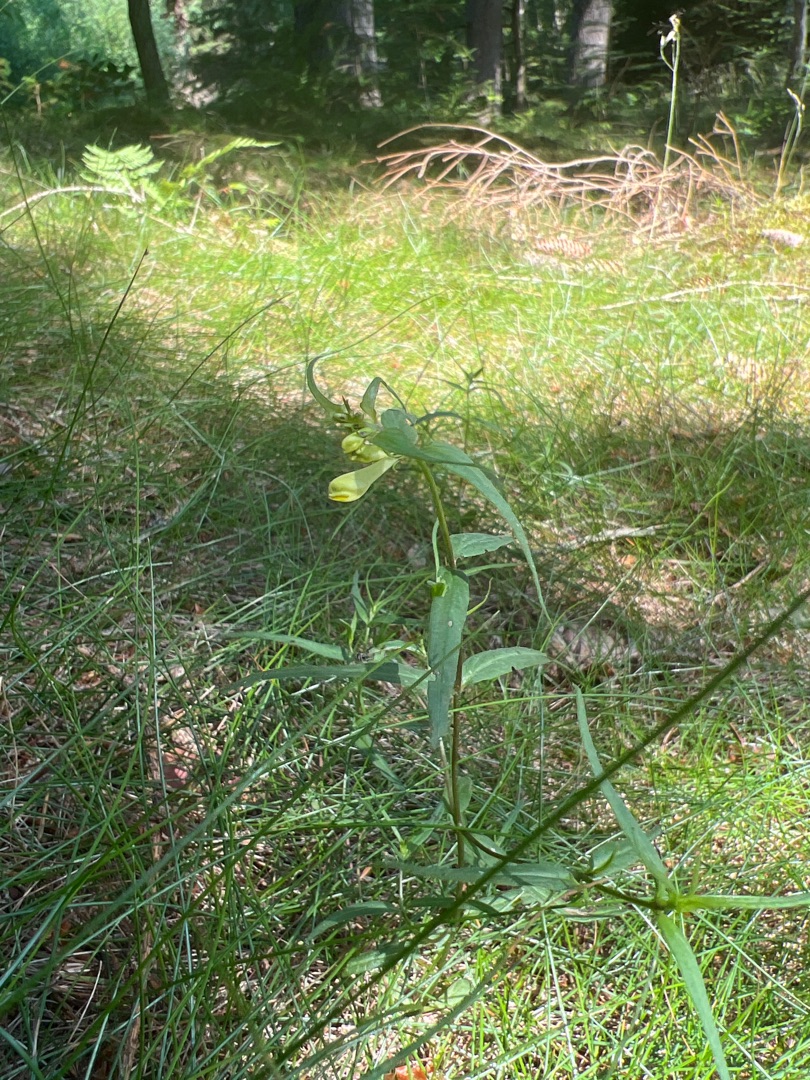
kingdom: Plantae
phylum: Tracheophyta
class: Magnoliopsida
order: Lamiales
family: Orobanchaceae
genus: Melampyrum
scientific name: Melampyrum pratense
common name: Almindelig kohvede
